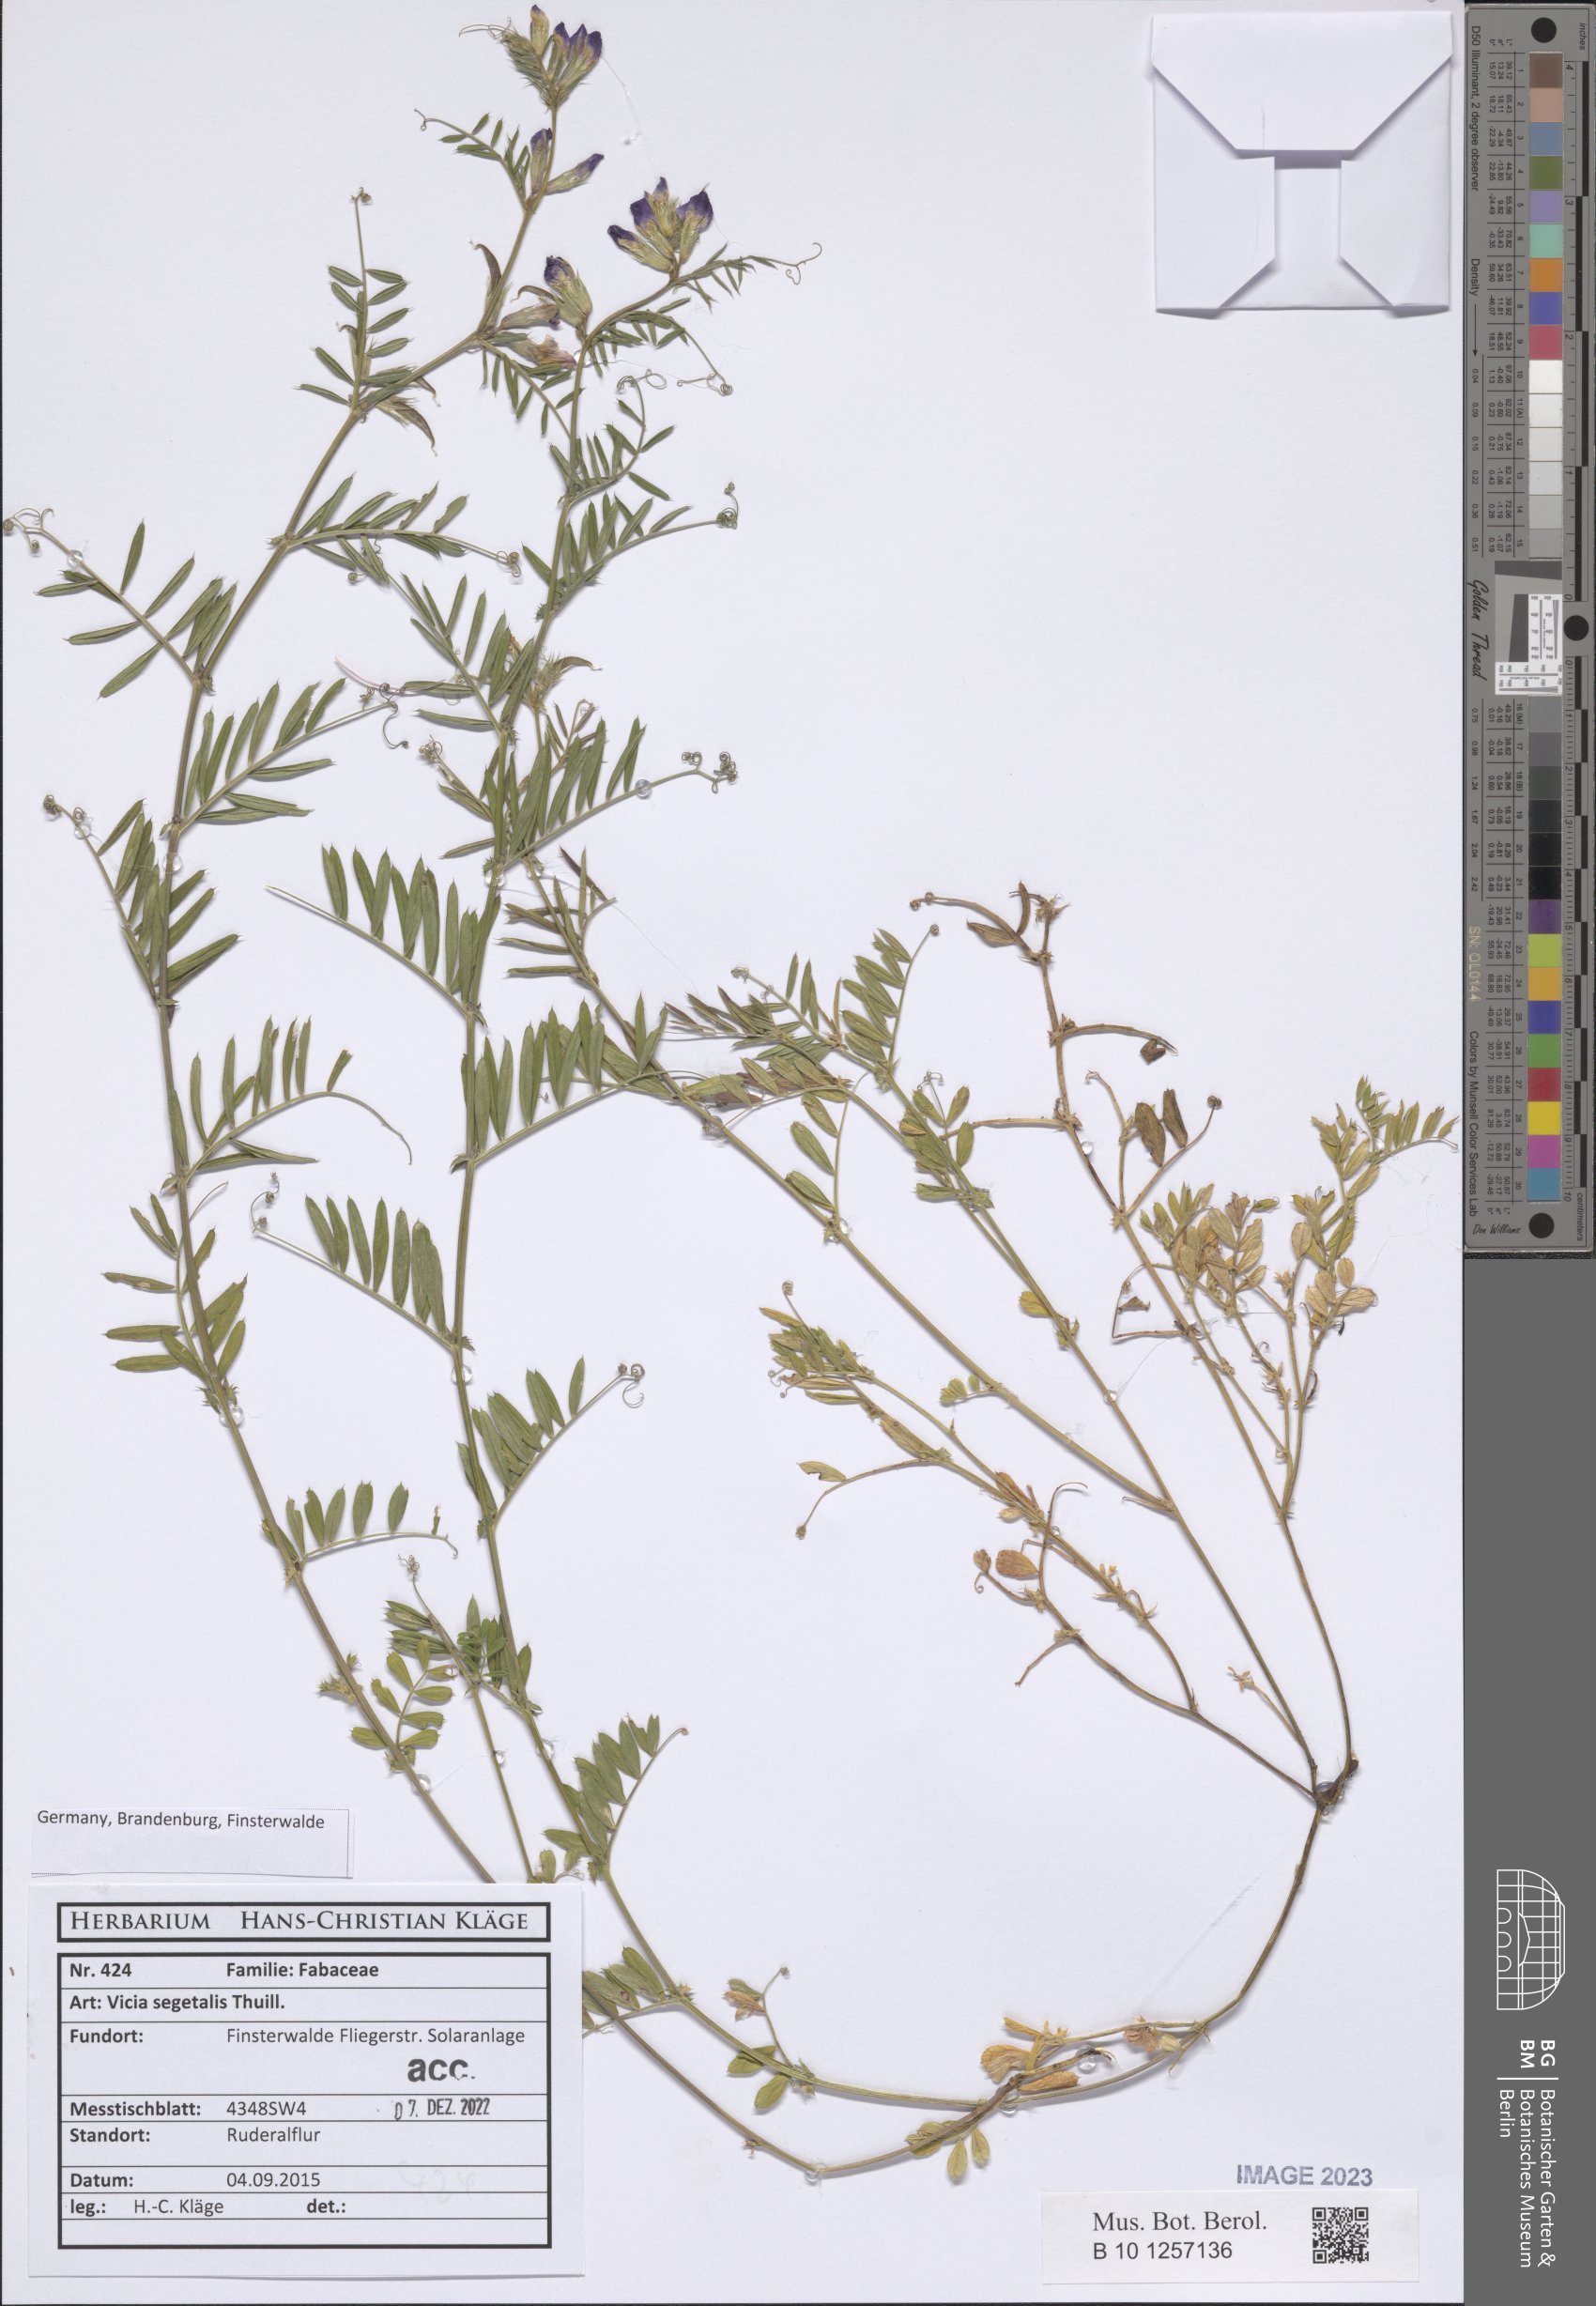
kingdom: Plantae
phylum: Tracheophyta
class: Magnoliopsida
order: Fabales
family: Fabaceae
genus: Vicia
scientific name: Vicia sativa
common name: Garden vetch
